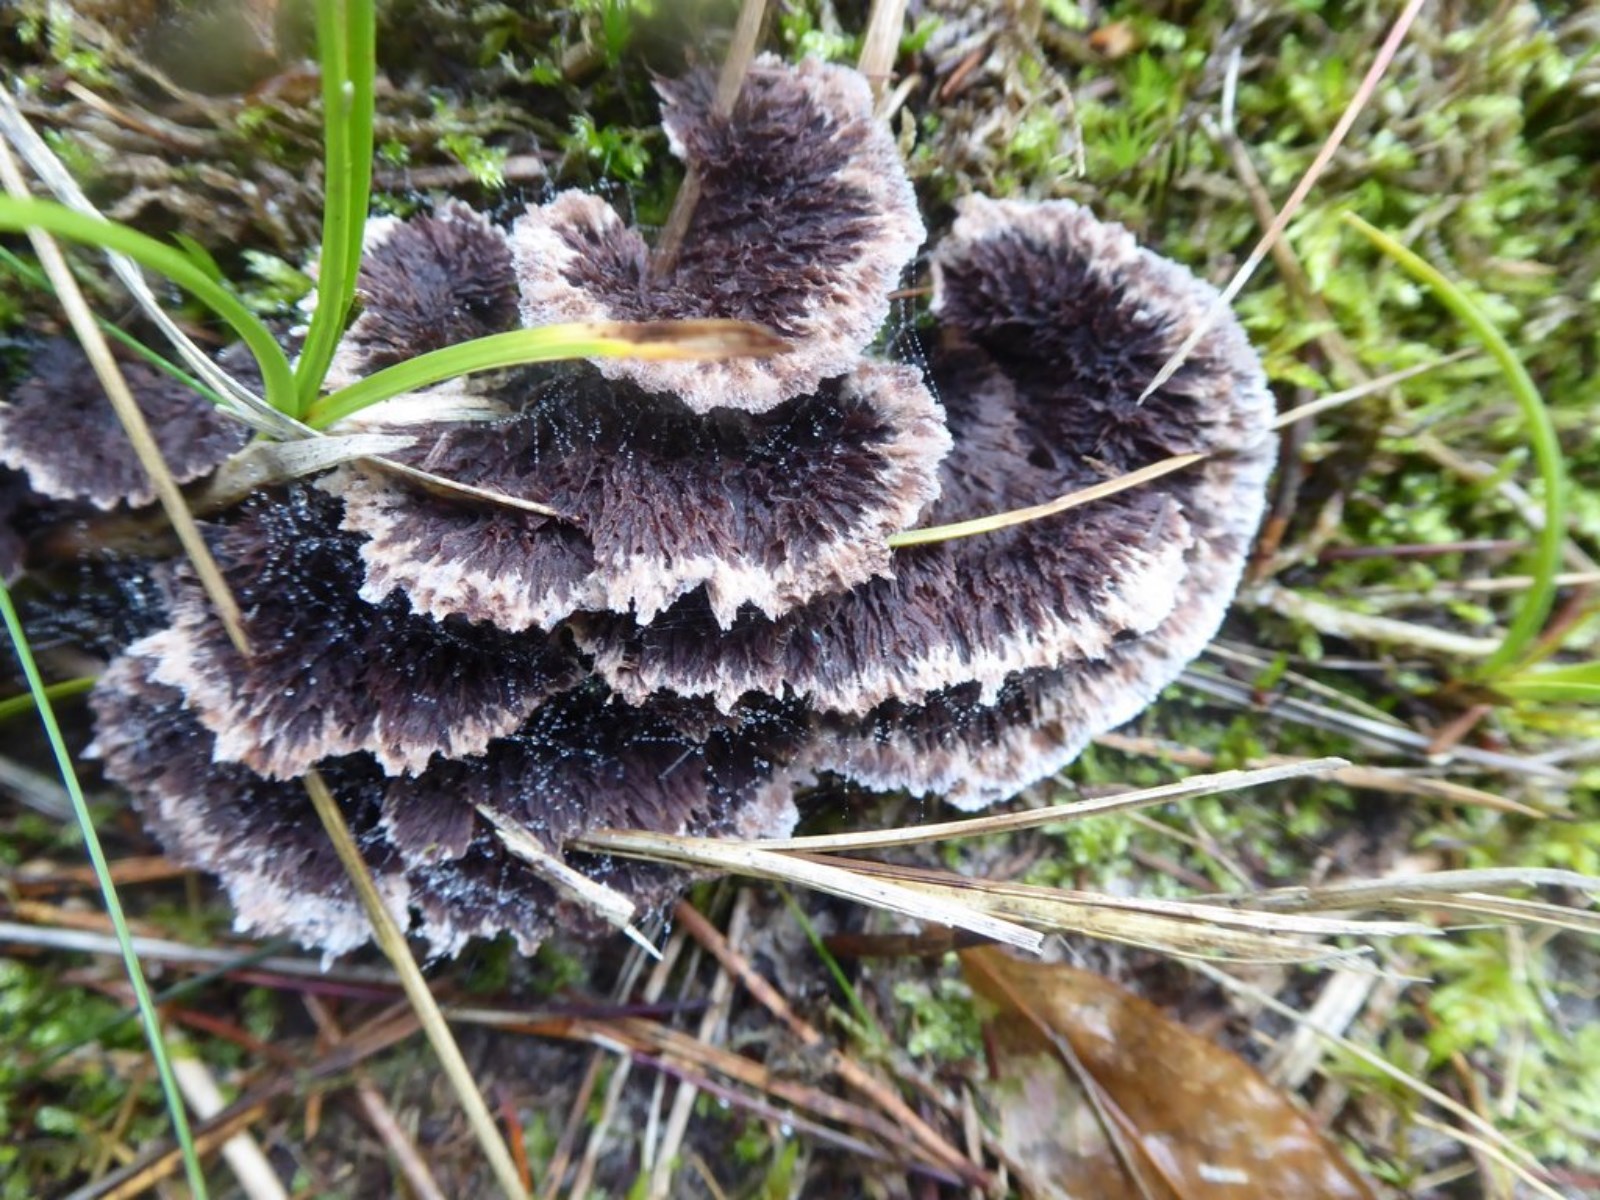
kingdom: Fungi
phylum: Basidiomycota
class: Agaricomycetes
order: Thelephorales
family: Thelephoraceae
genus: Thelephora
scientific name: Thelephora terrestris
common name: fliget frynsesvamp
